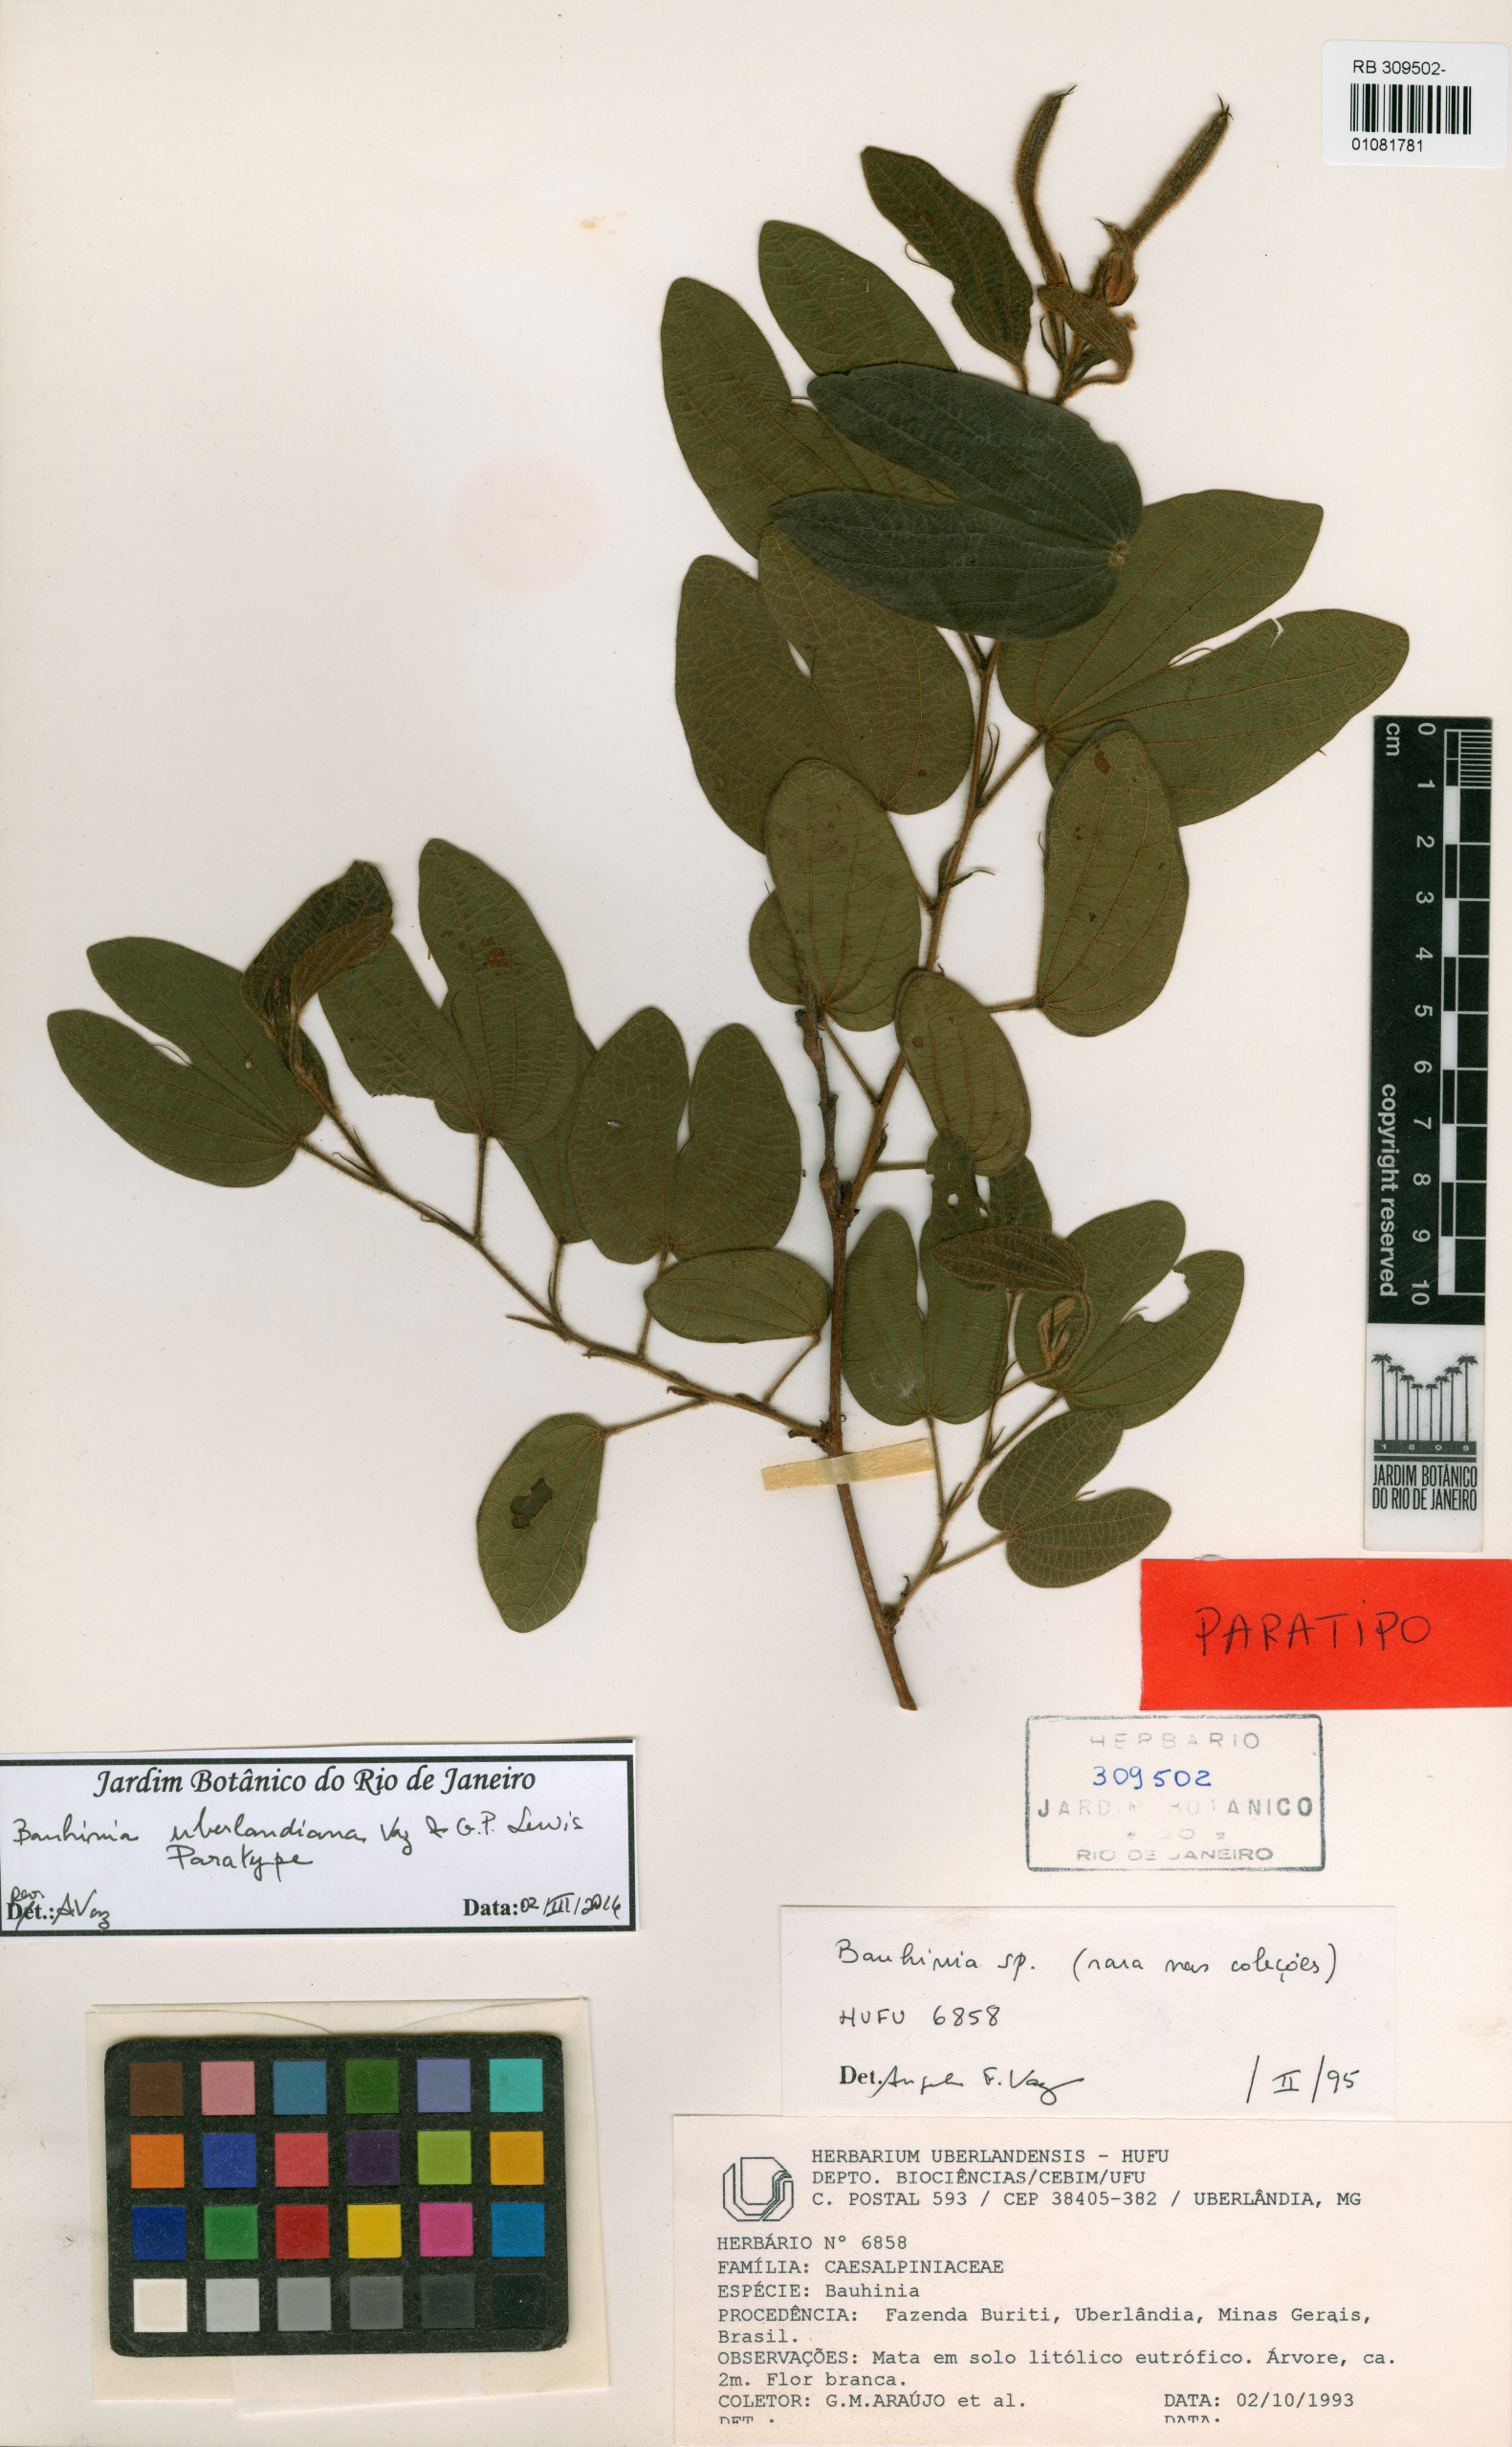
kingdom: Plantae
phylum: Tracheophyta
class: Magnoliopsida
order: Fabales
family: Fabaceae
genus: Bauhinia
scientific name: Bauhinia uberlandiana
